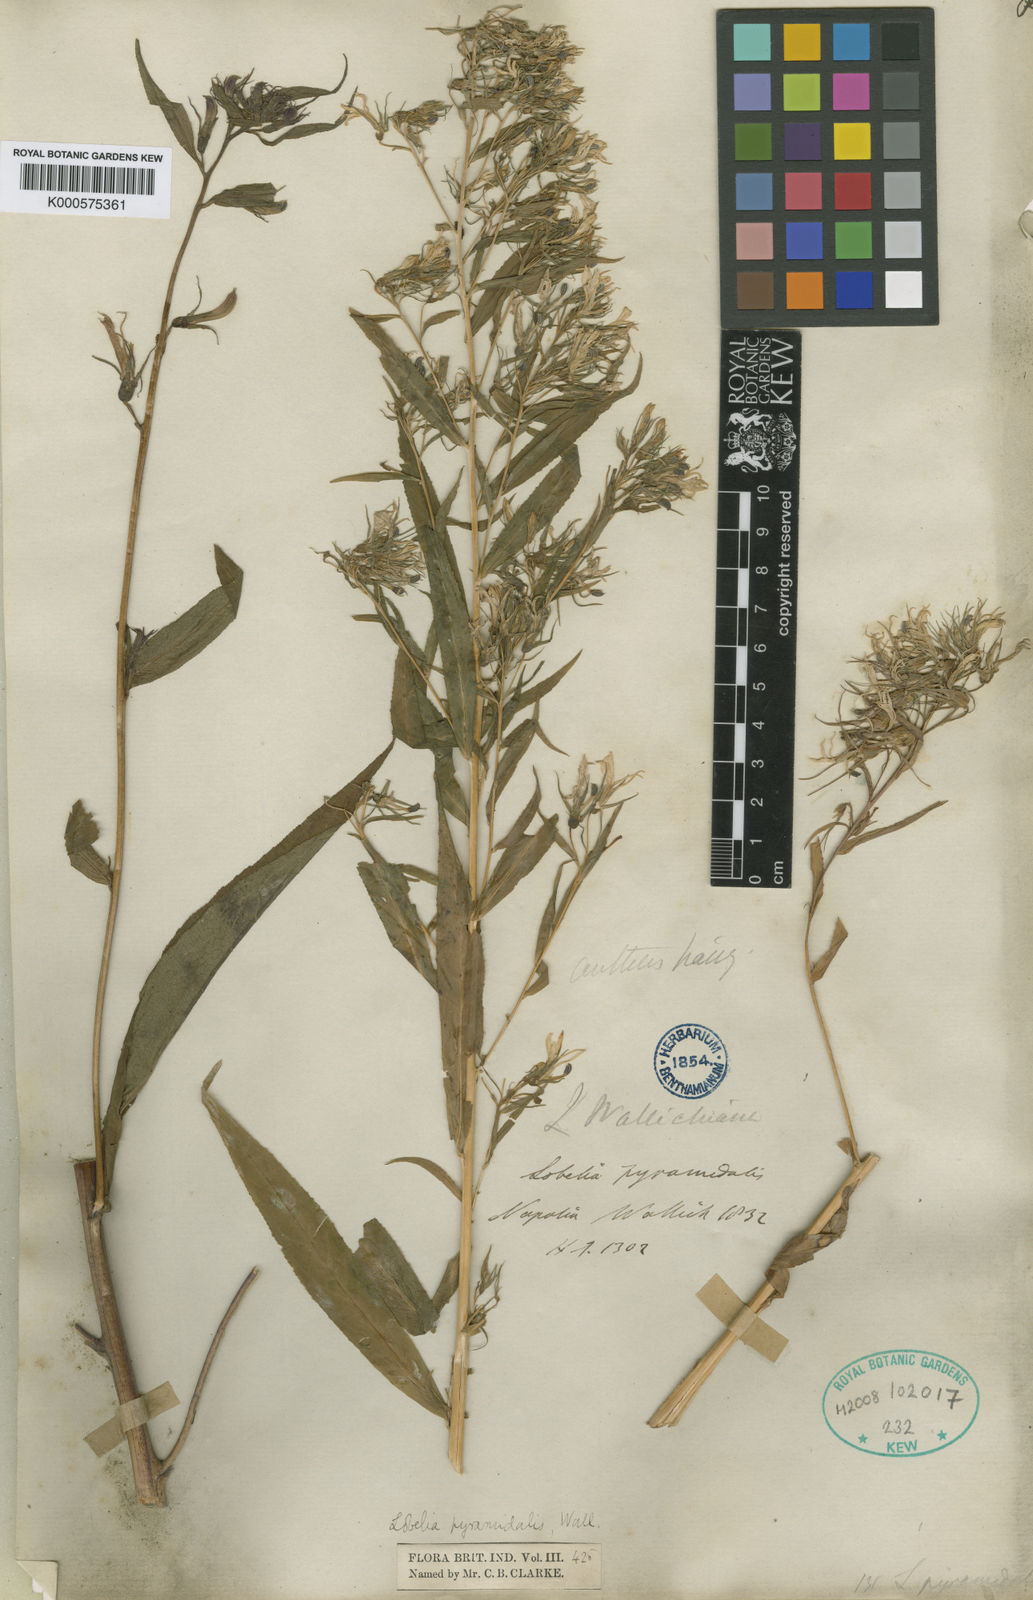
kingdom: Plantae
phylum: Tracheophyta
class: Magnoliopsida
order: Asterales
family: Campanulaceae
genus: Lobelia
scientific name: Lobelia
